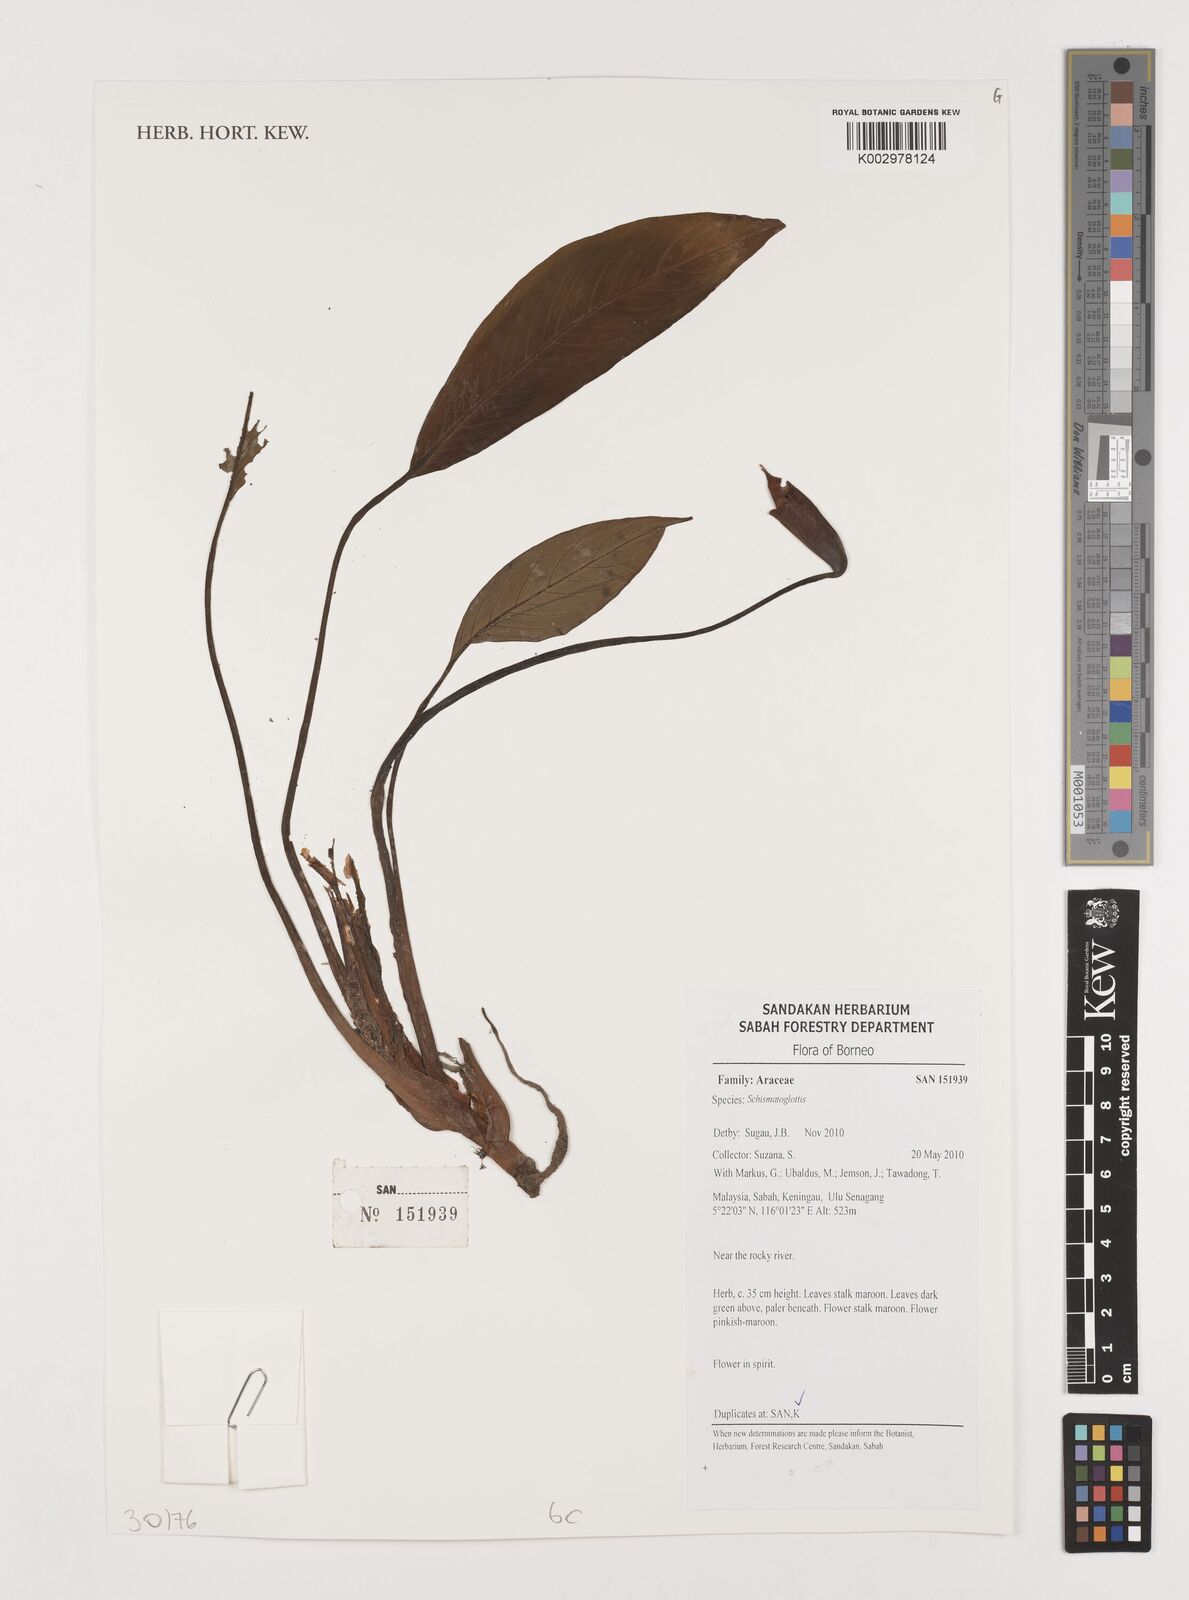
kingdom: Plantae
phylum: Tracheophyta
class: Liliopsida
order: Alismatales
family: Araceae
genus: Schismatoglottis
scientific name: Schismatoglottis
